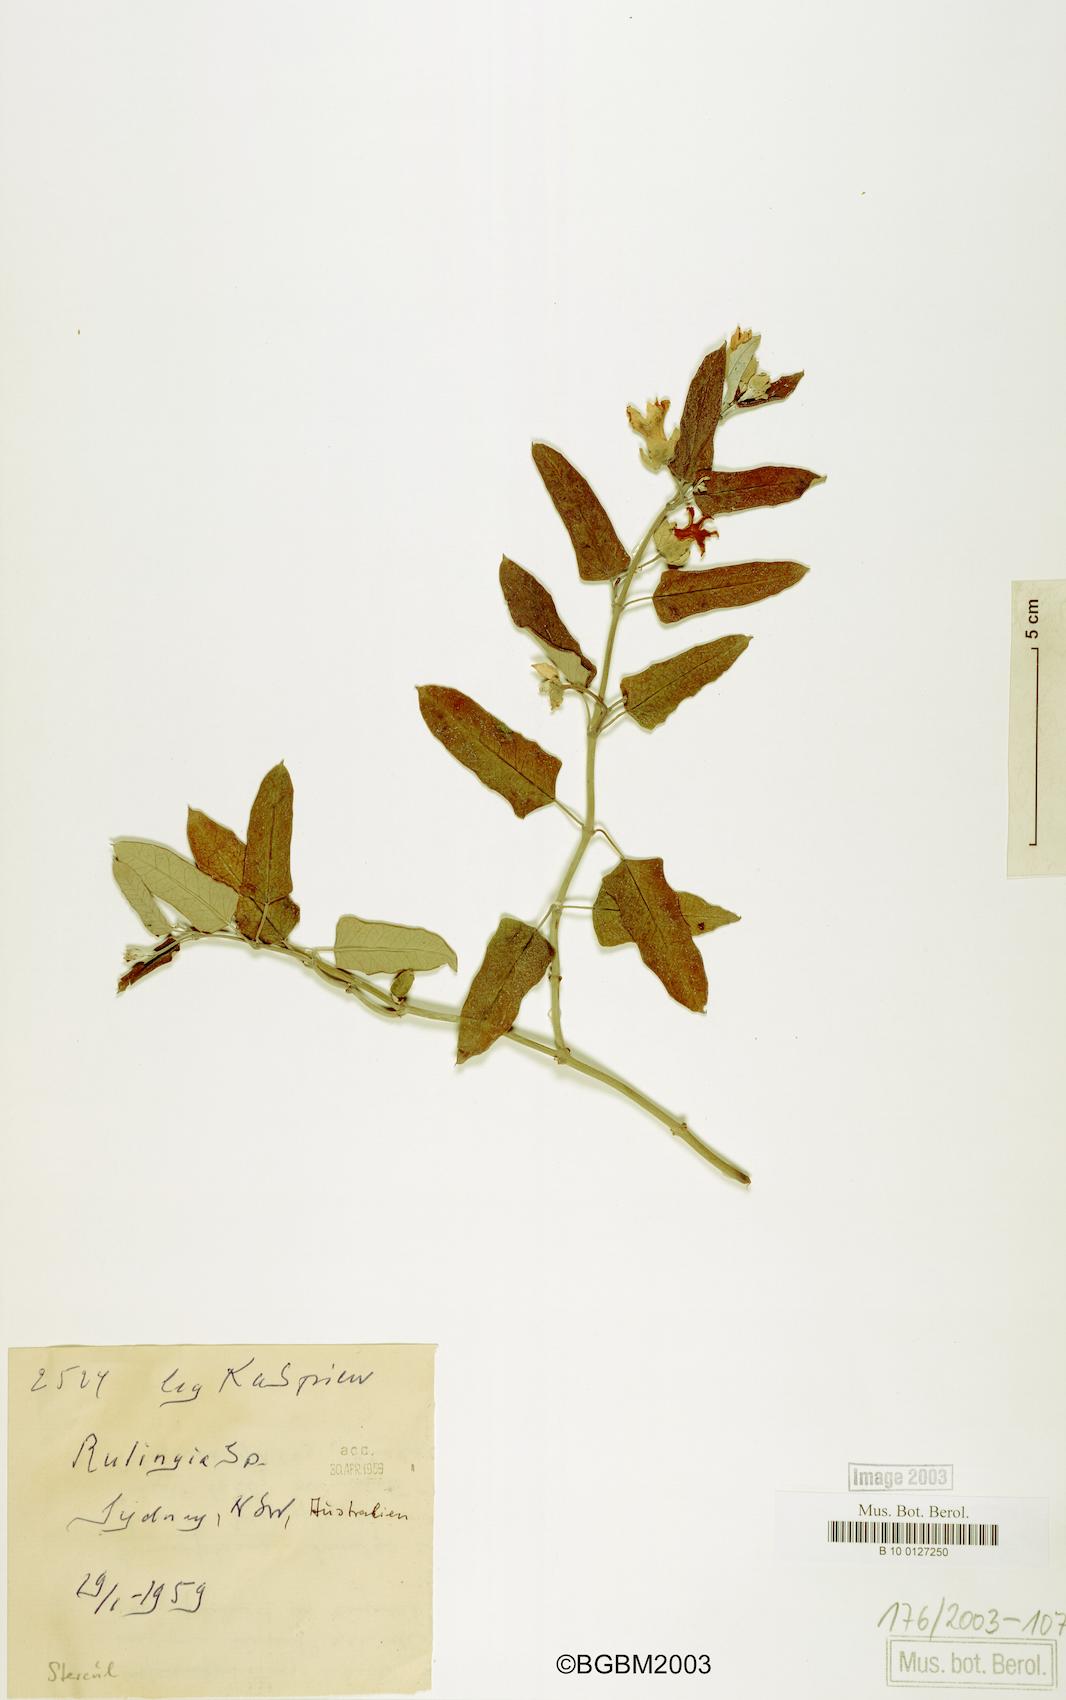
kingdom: Plantae
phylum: Tracheophyta
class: Magnoliopsida
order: Malvales
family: Malvaceae
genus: Commersonia
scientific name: Commersonia
